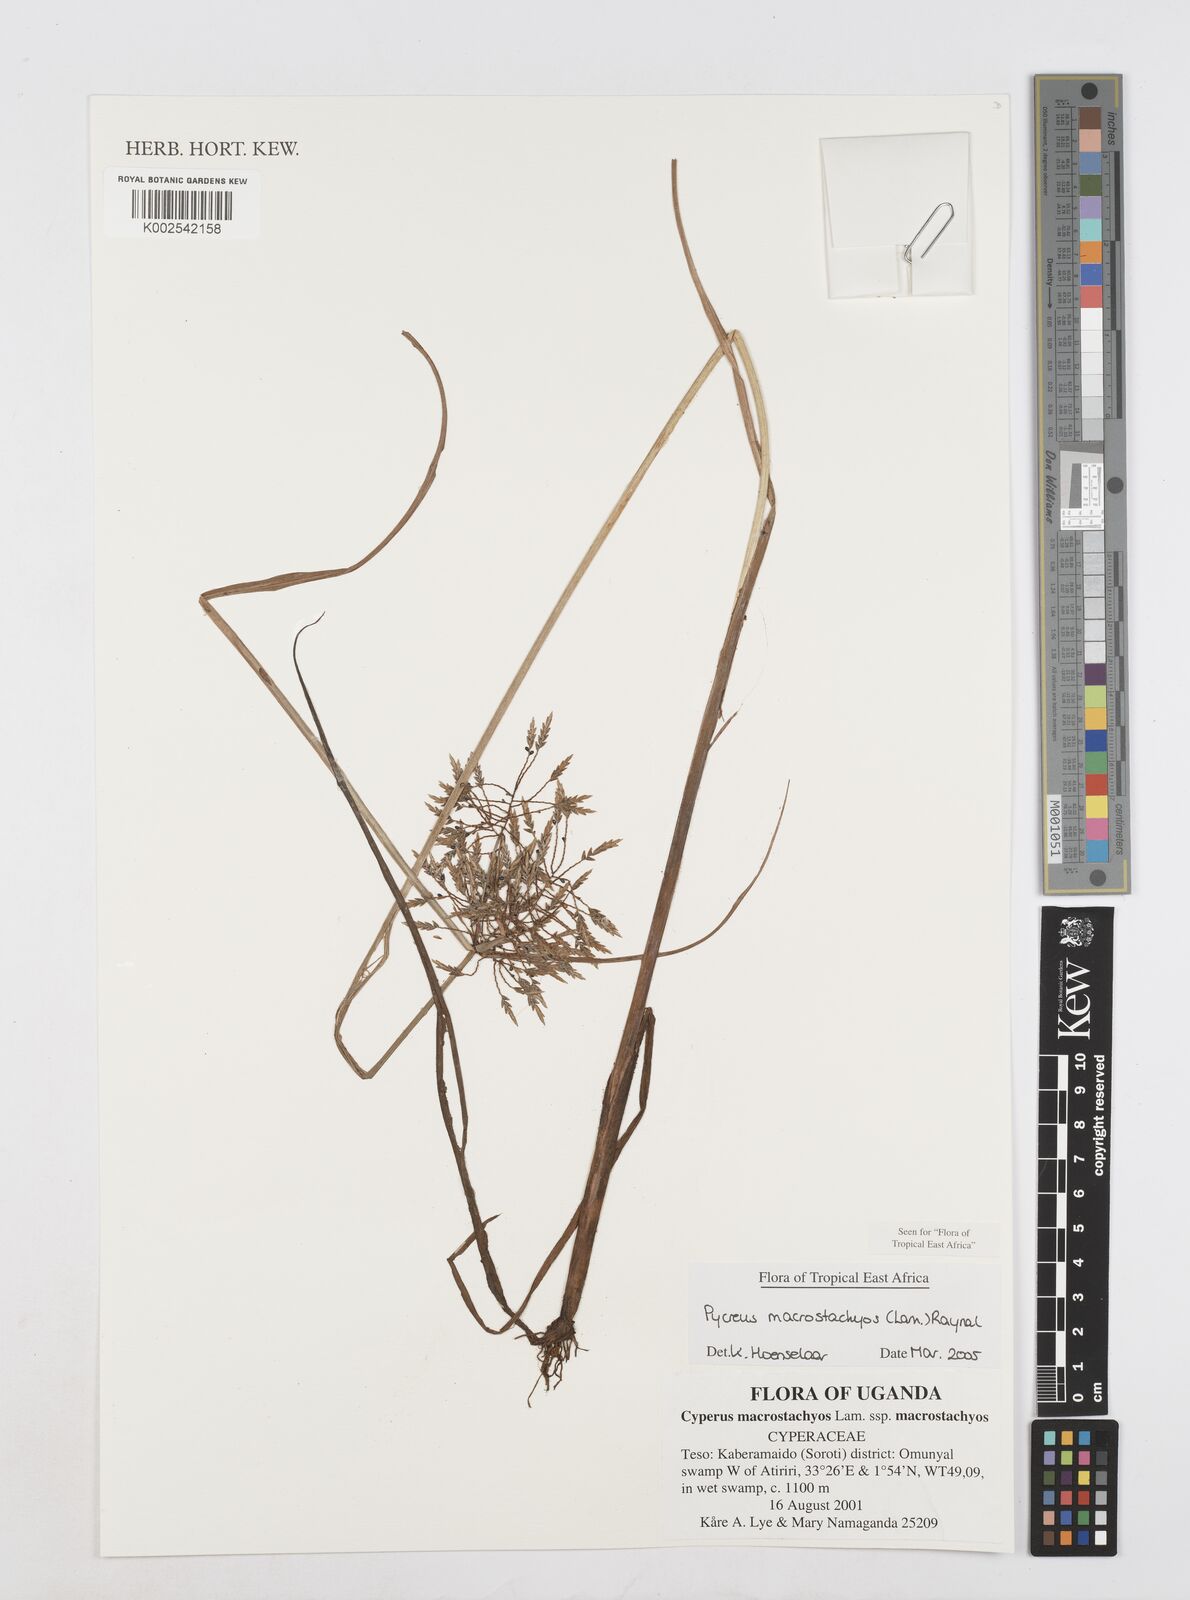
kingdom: Plantae
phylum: Tracheophyta
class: Liliopsida
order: Poales
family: Cyperaceae
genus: Cyperus
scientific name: Cyperus macrostachyos
